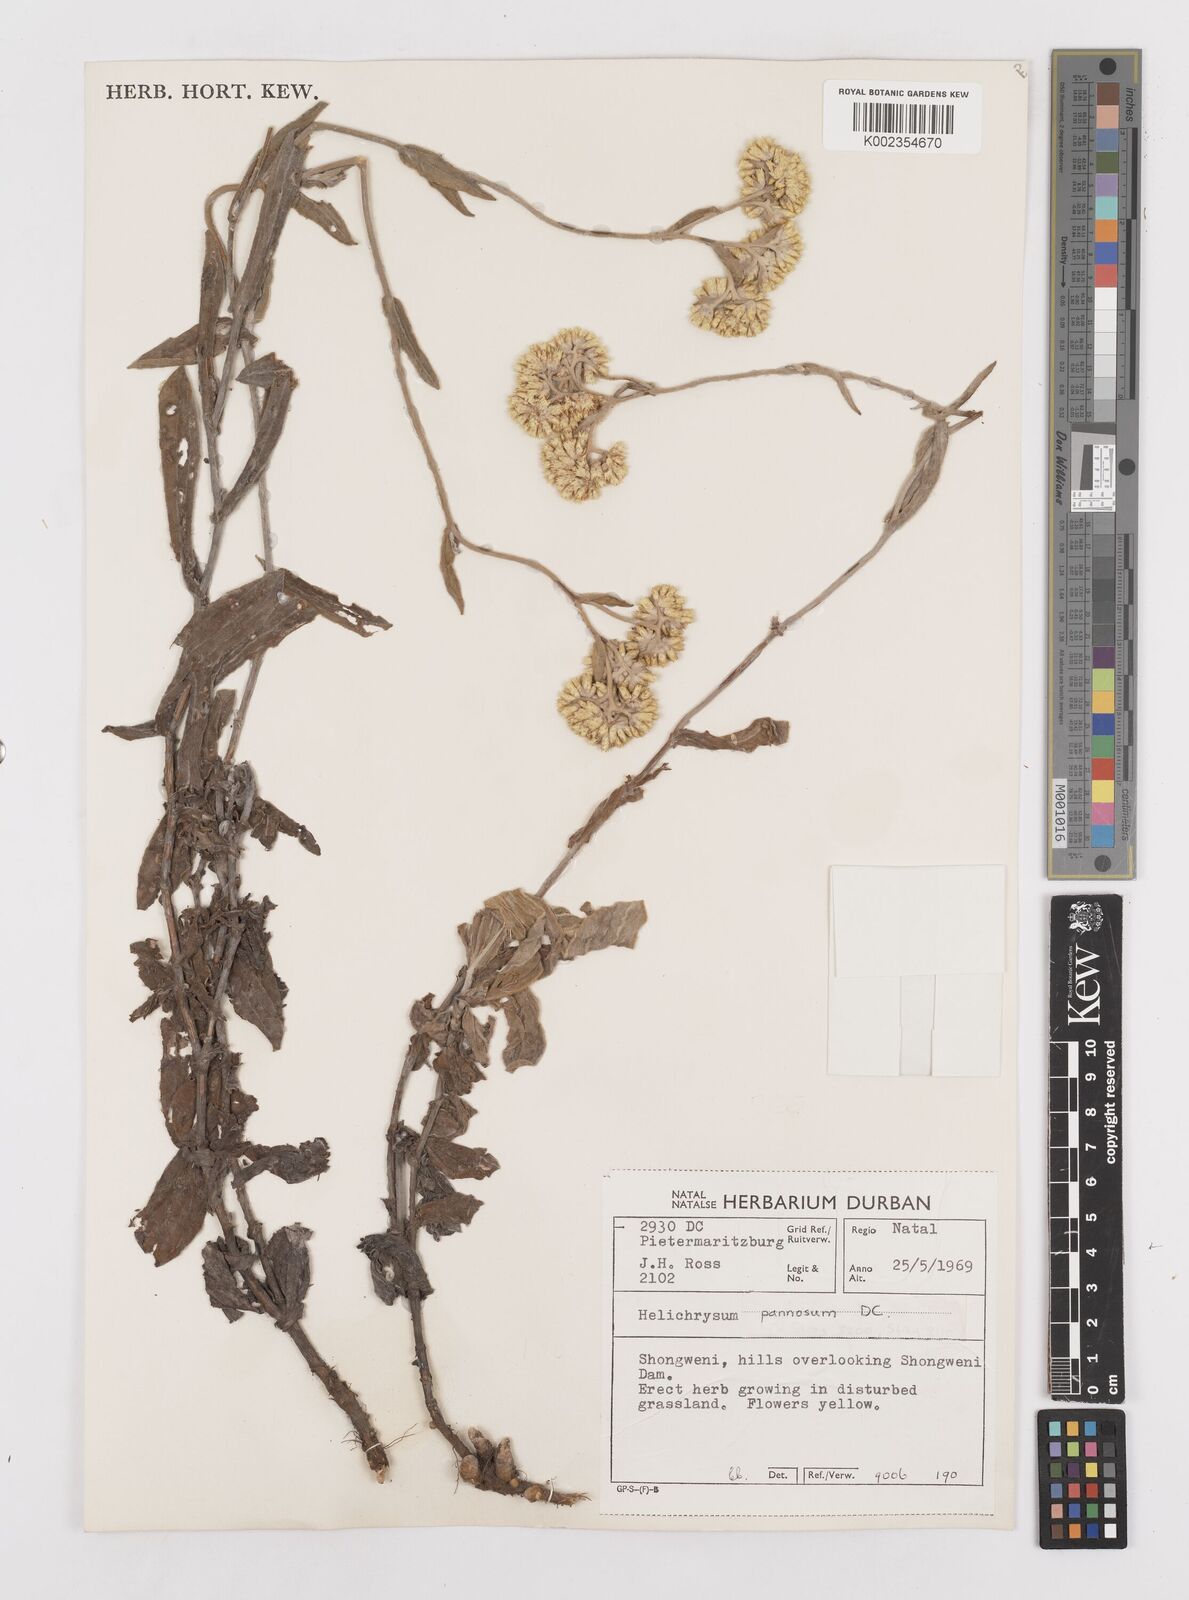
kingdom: Plantae
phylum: Tracheophyta
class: Magnoliopsida
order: Asterales
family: Asteraceae
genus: Helichrysum
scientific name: Helichrysum pannosum
